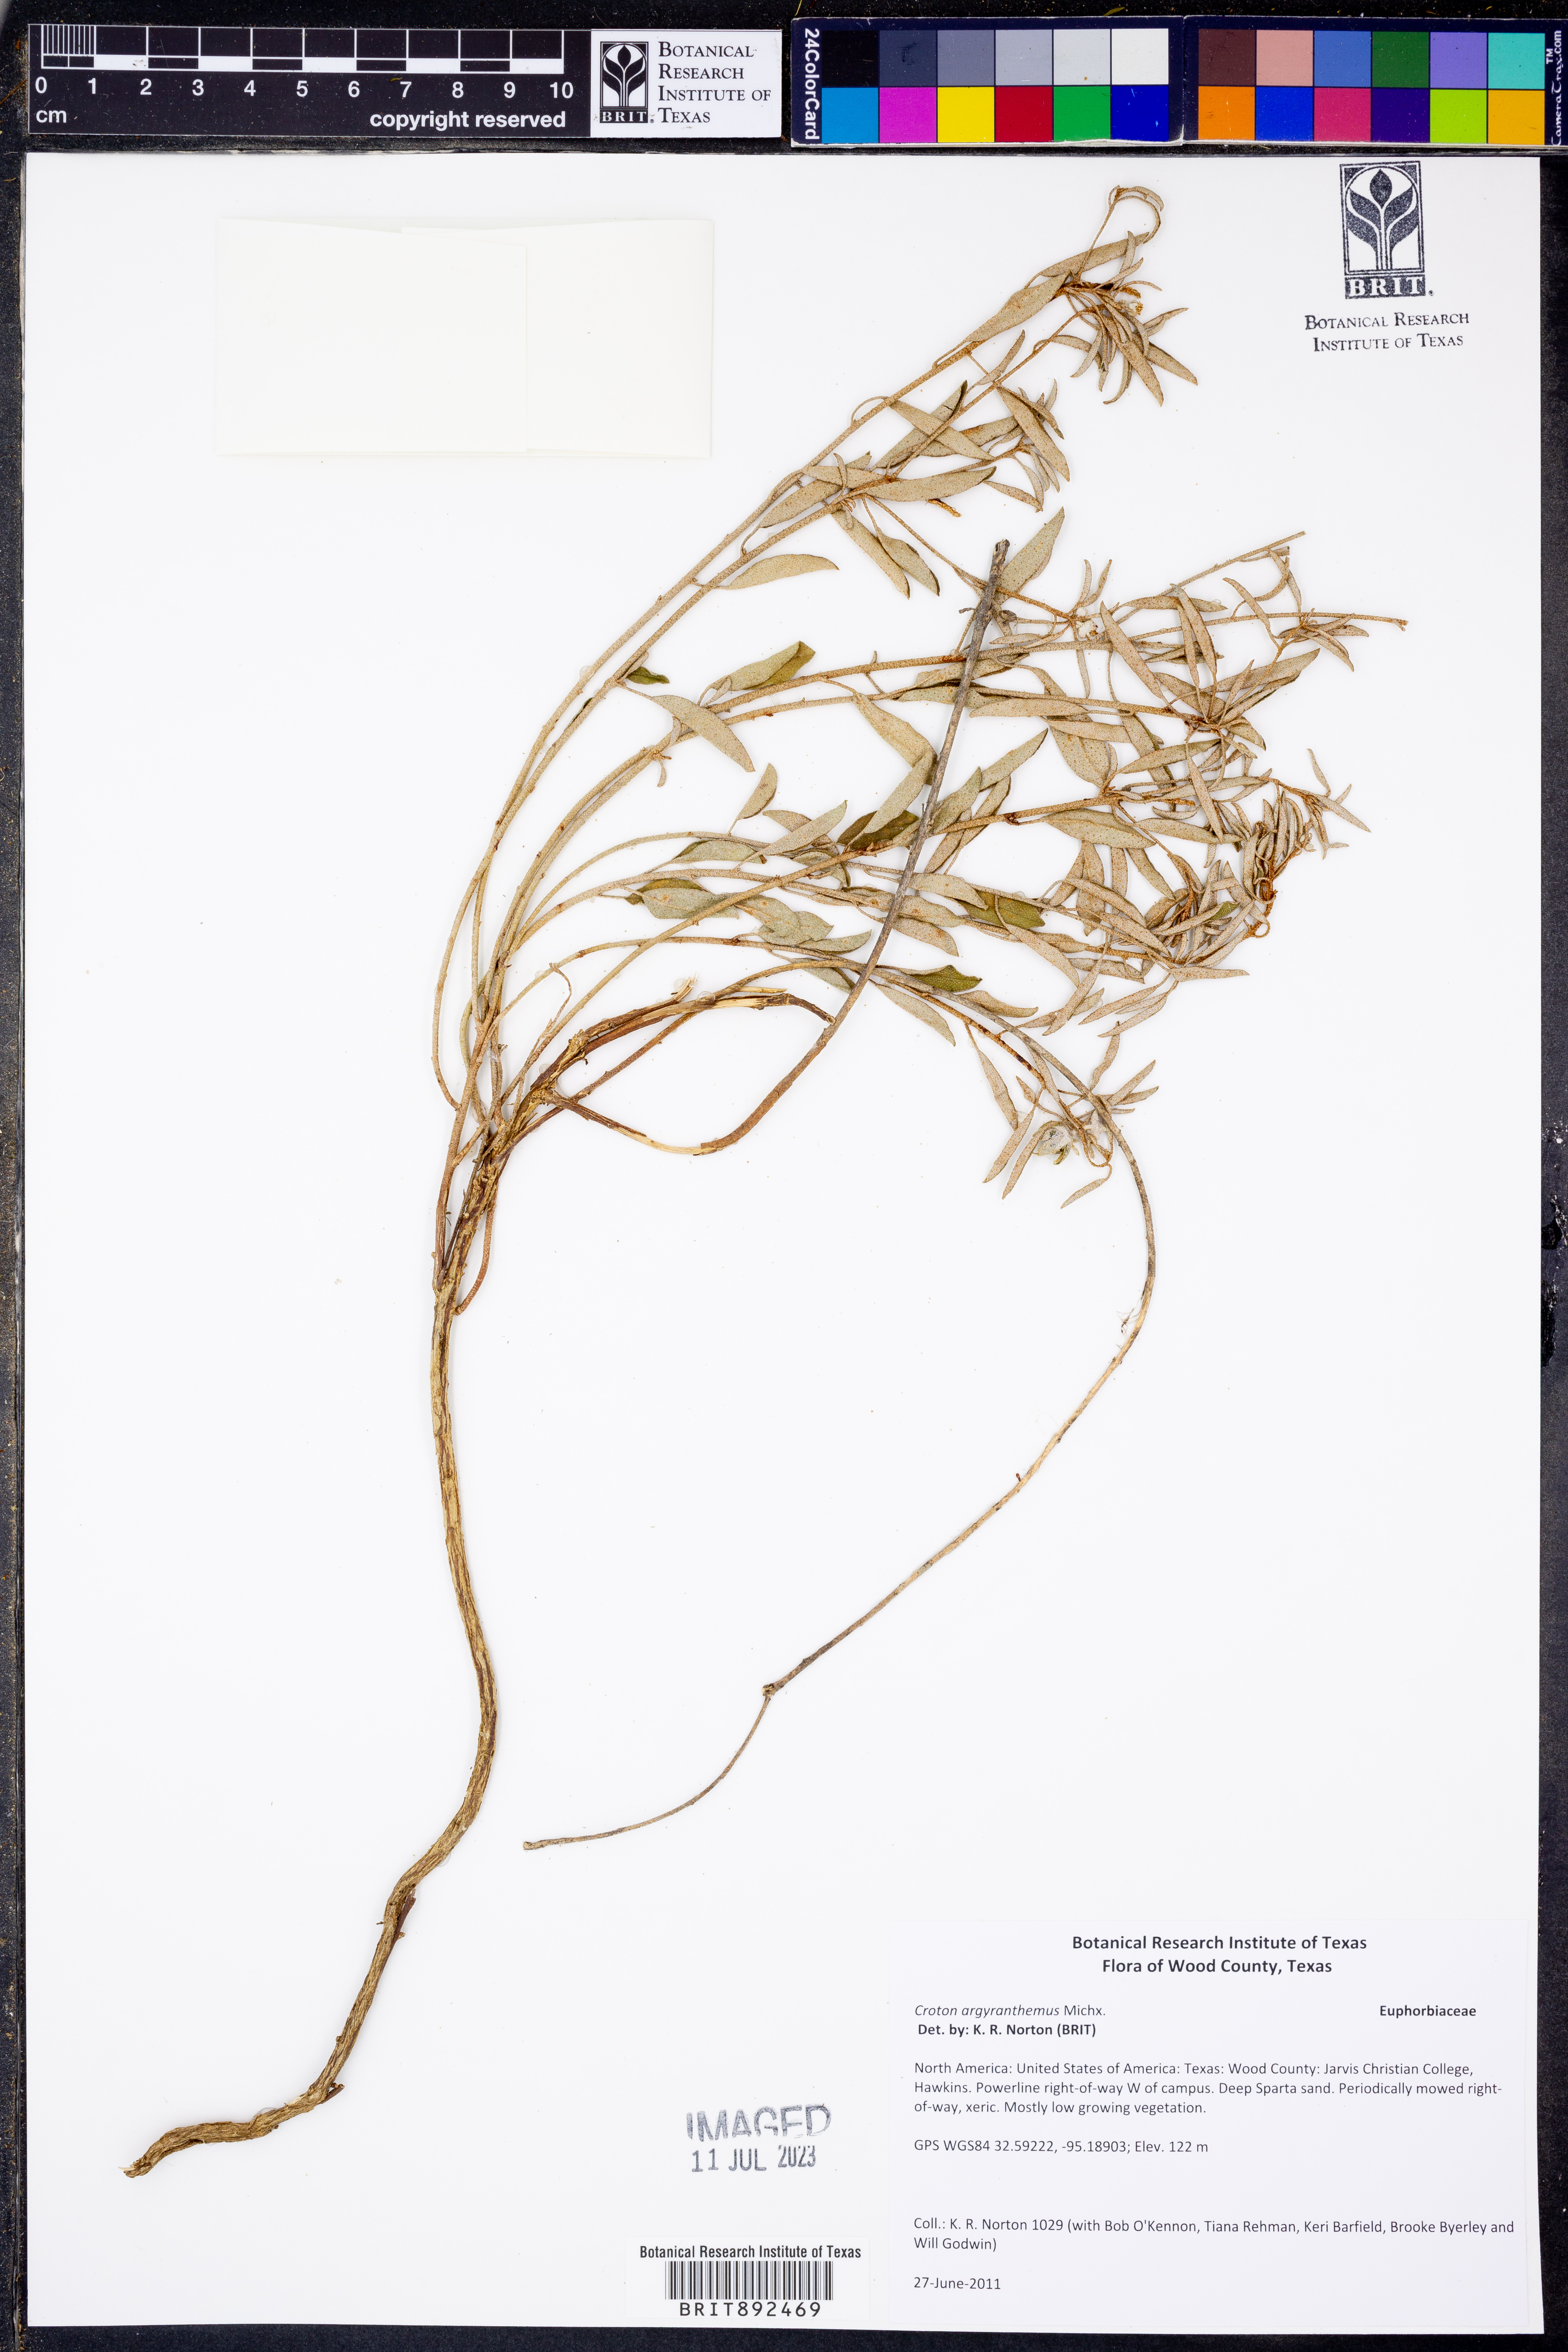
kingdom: Plantae
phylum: Tracheophyta
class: Magnoliopsida
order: Malpighiales
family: Euphorbiaceae
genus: Croton
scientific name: Croton argyranthemus
